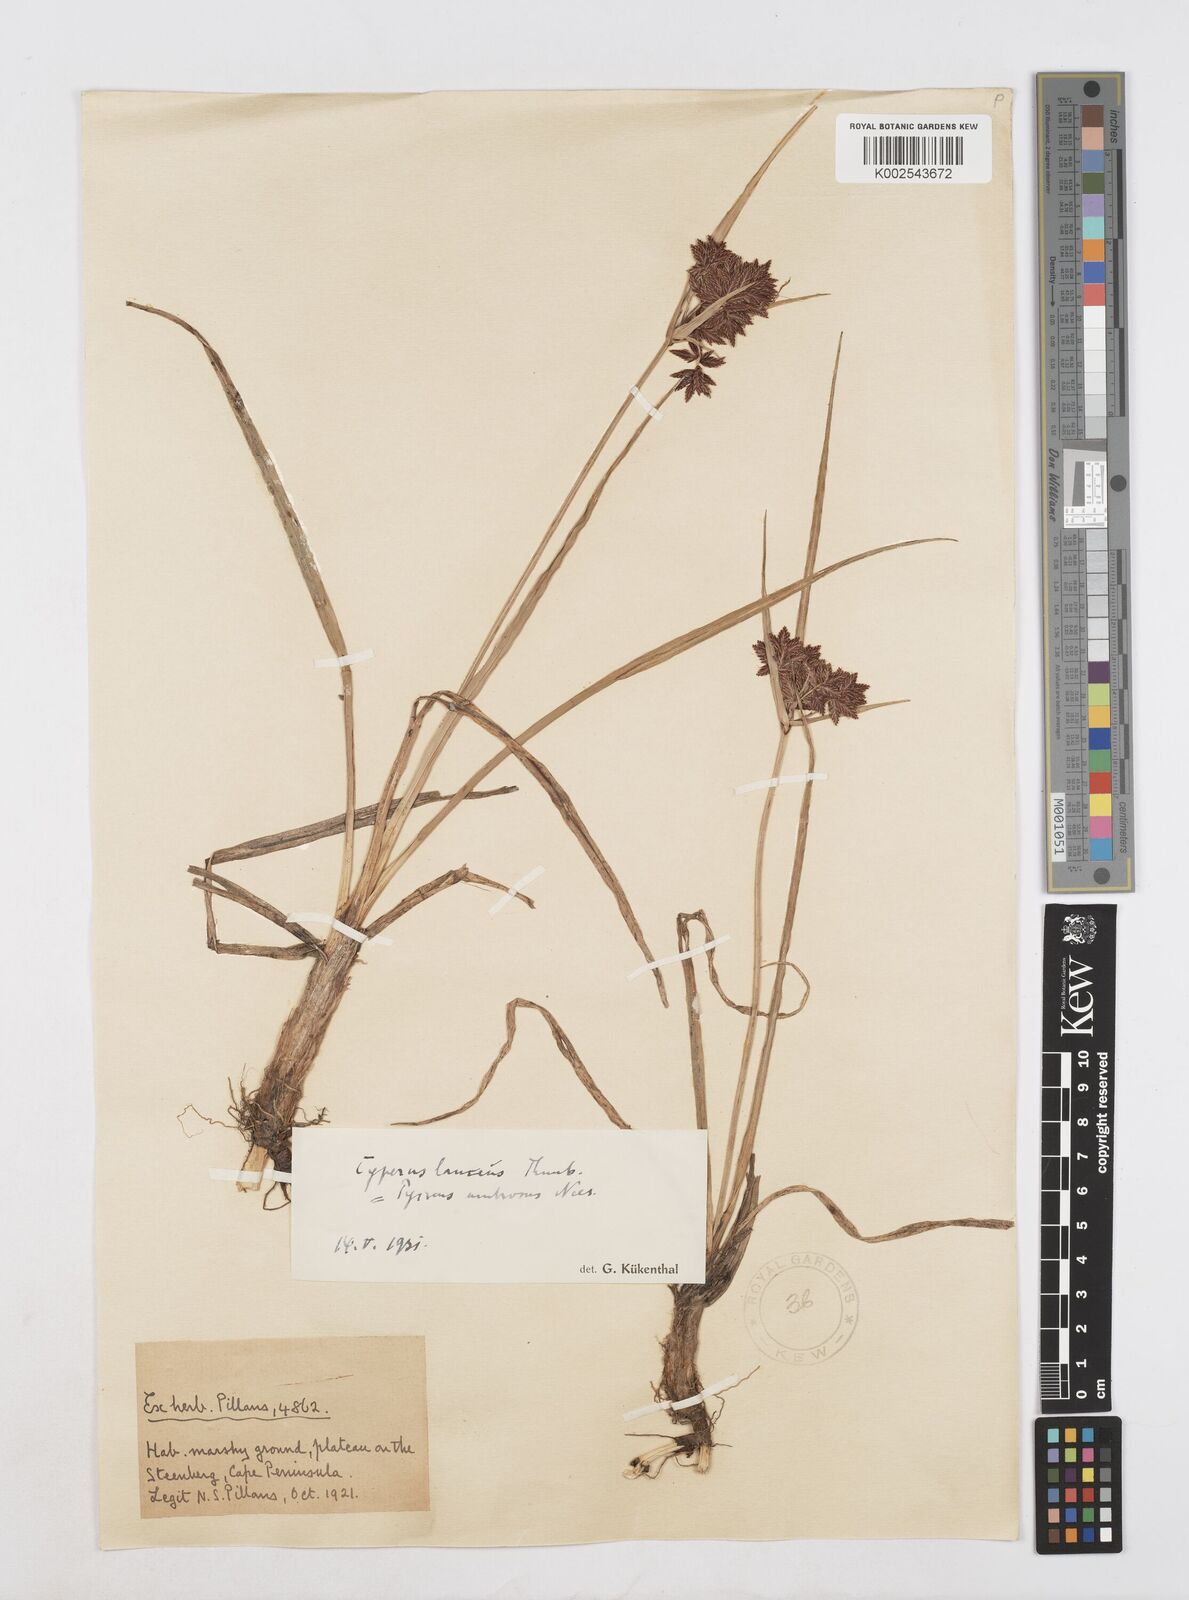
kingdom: Plantae
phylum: Tracheophyta
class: Liliopsida
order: Poales
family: Cyperaceae
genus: Cyperus
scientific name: Cyperus nitidus
